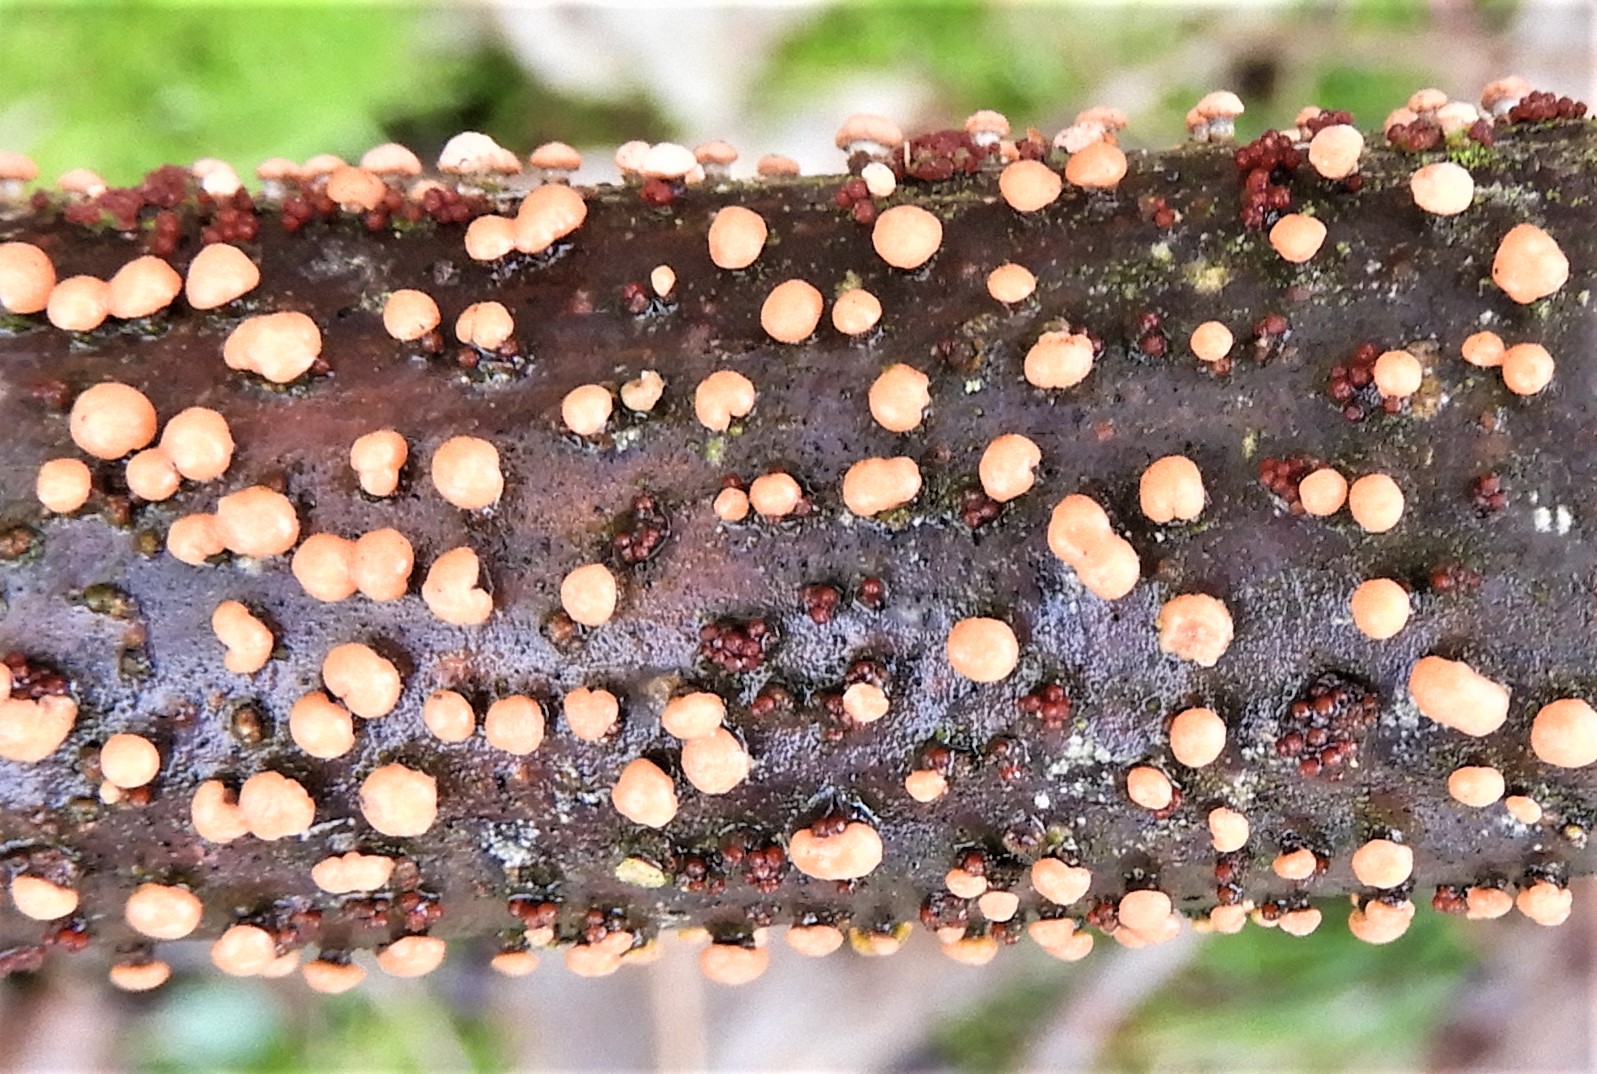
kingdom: Fungi
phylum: Ascomycota
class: Sordariomycetes
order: Hypocreales
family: Nectriaceae
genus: Nectria
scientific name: Nectria cinnabarina
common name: almindelig cinnobersvamp
